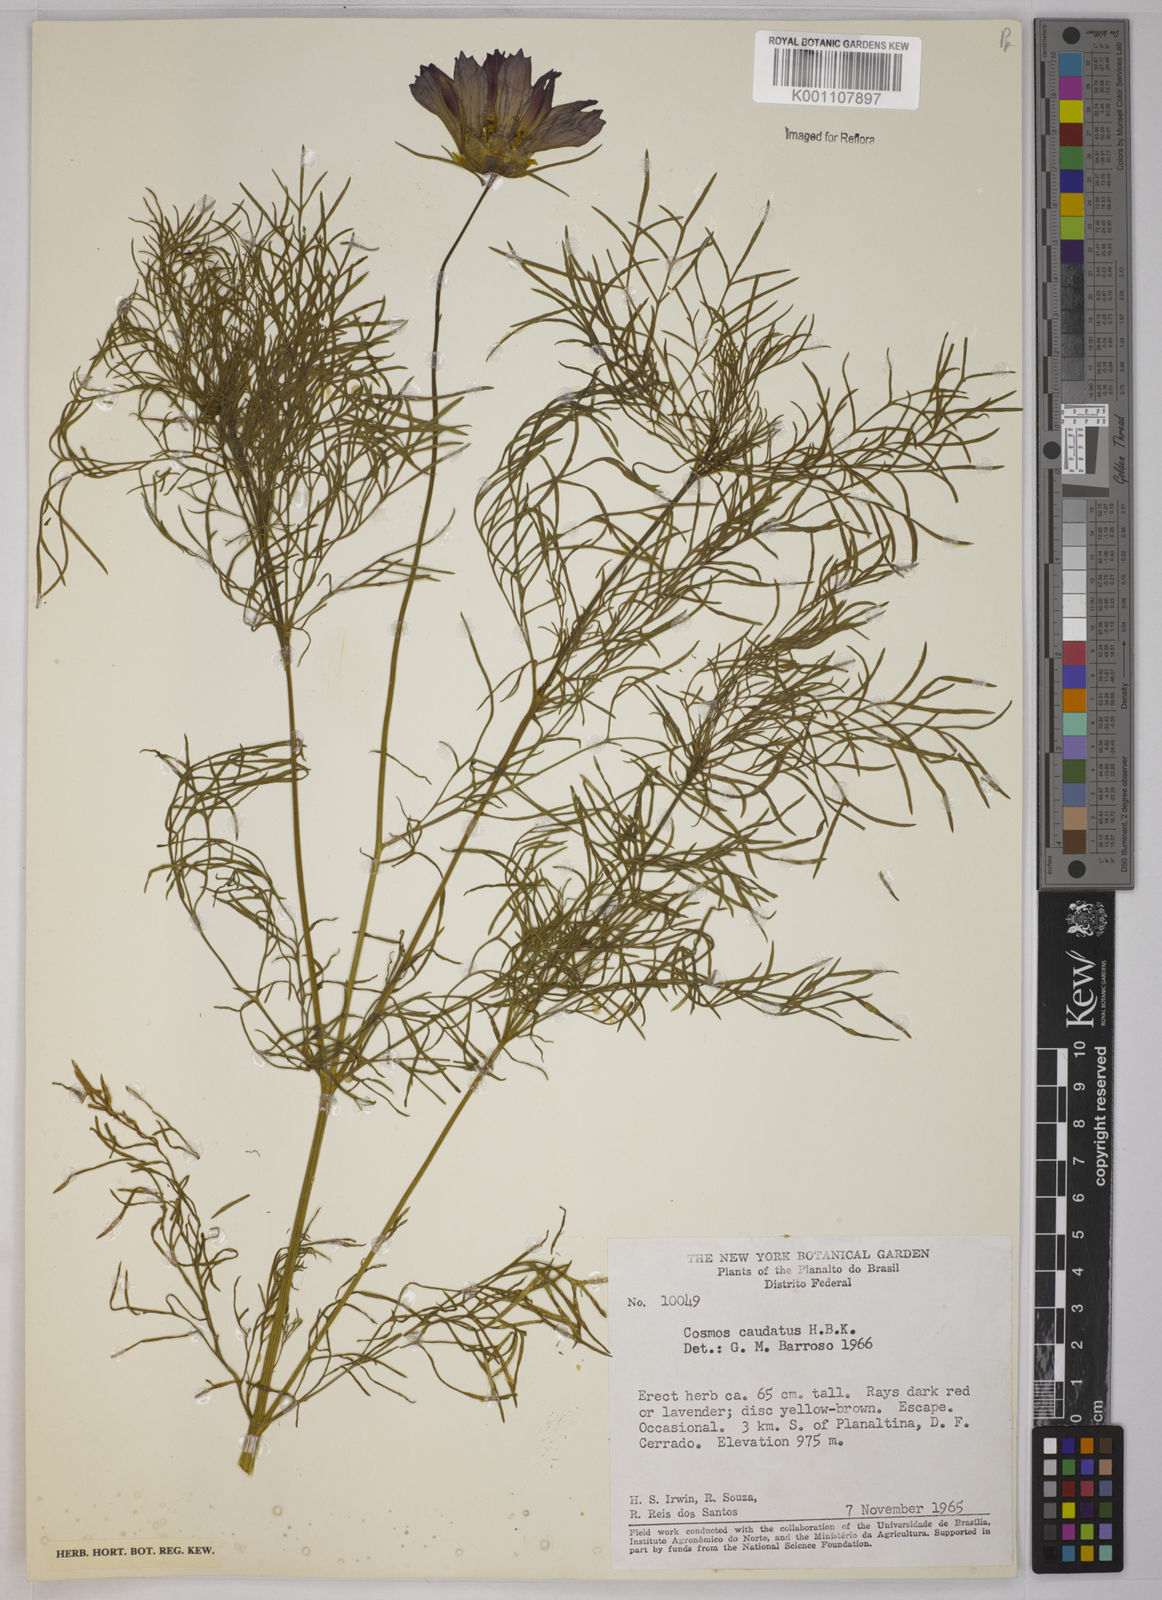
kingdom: Plantae
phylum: Tracheophyta
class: Magnoliopsida
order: Asterales
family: Asteraceae
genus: Cosmos
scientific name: Cosmos caudatus
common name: Wild cosmos
